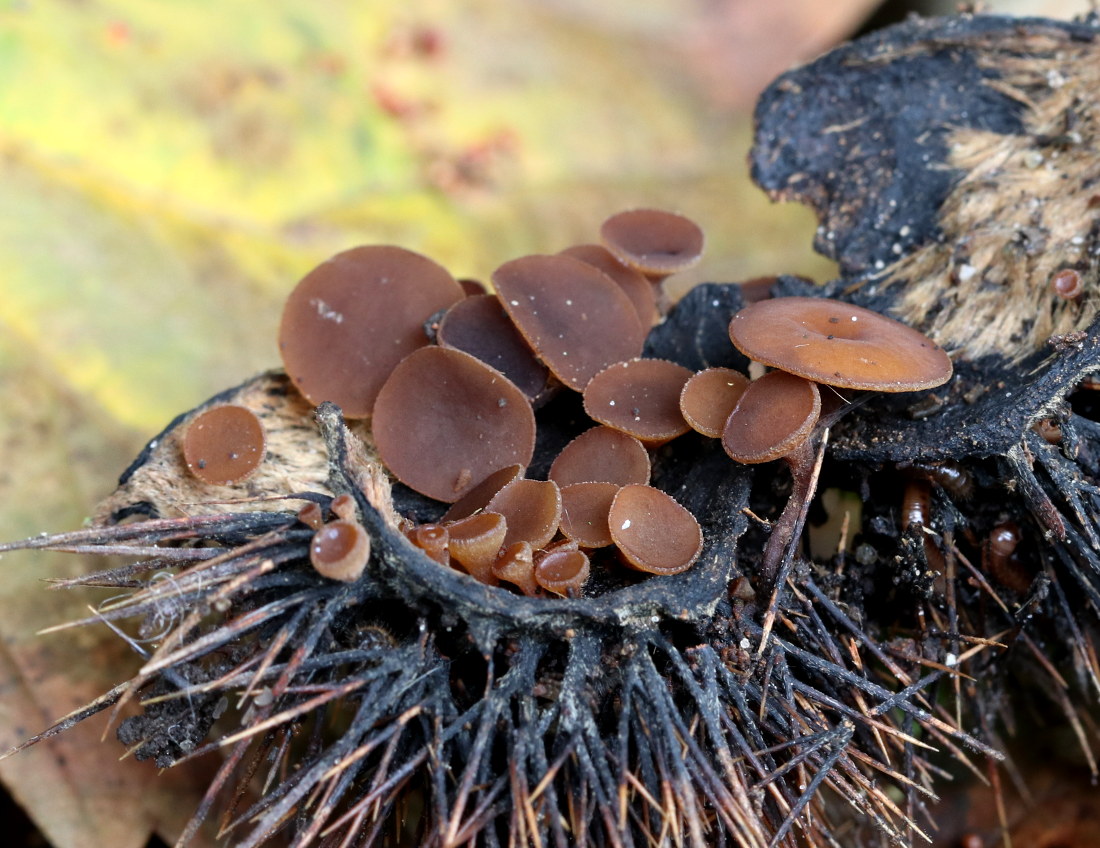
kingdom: Fungi
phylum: Ascomycota
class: Leotiomycetes
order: Helotiales
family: Rutstroemiaceae
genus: Lanzia
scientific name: Lanzia echinophila
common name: kastanie-brunskive
